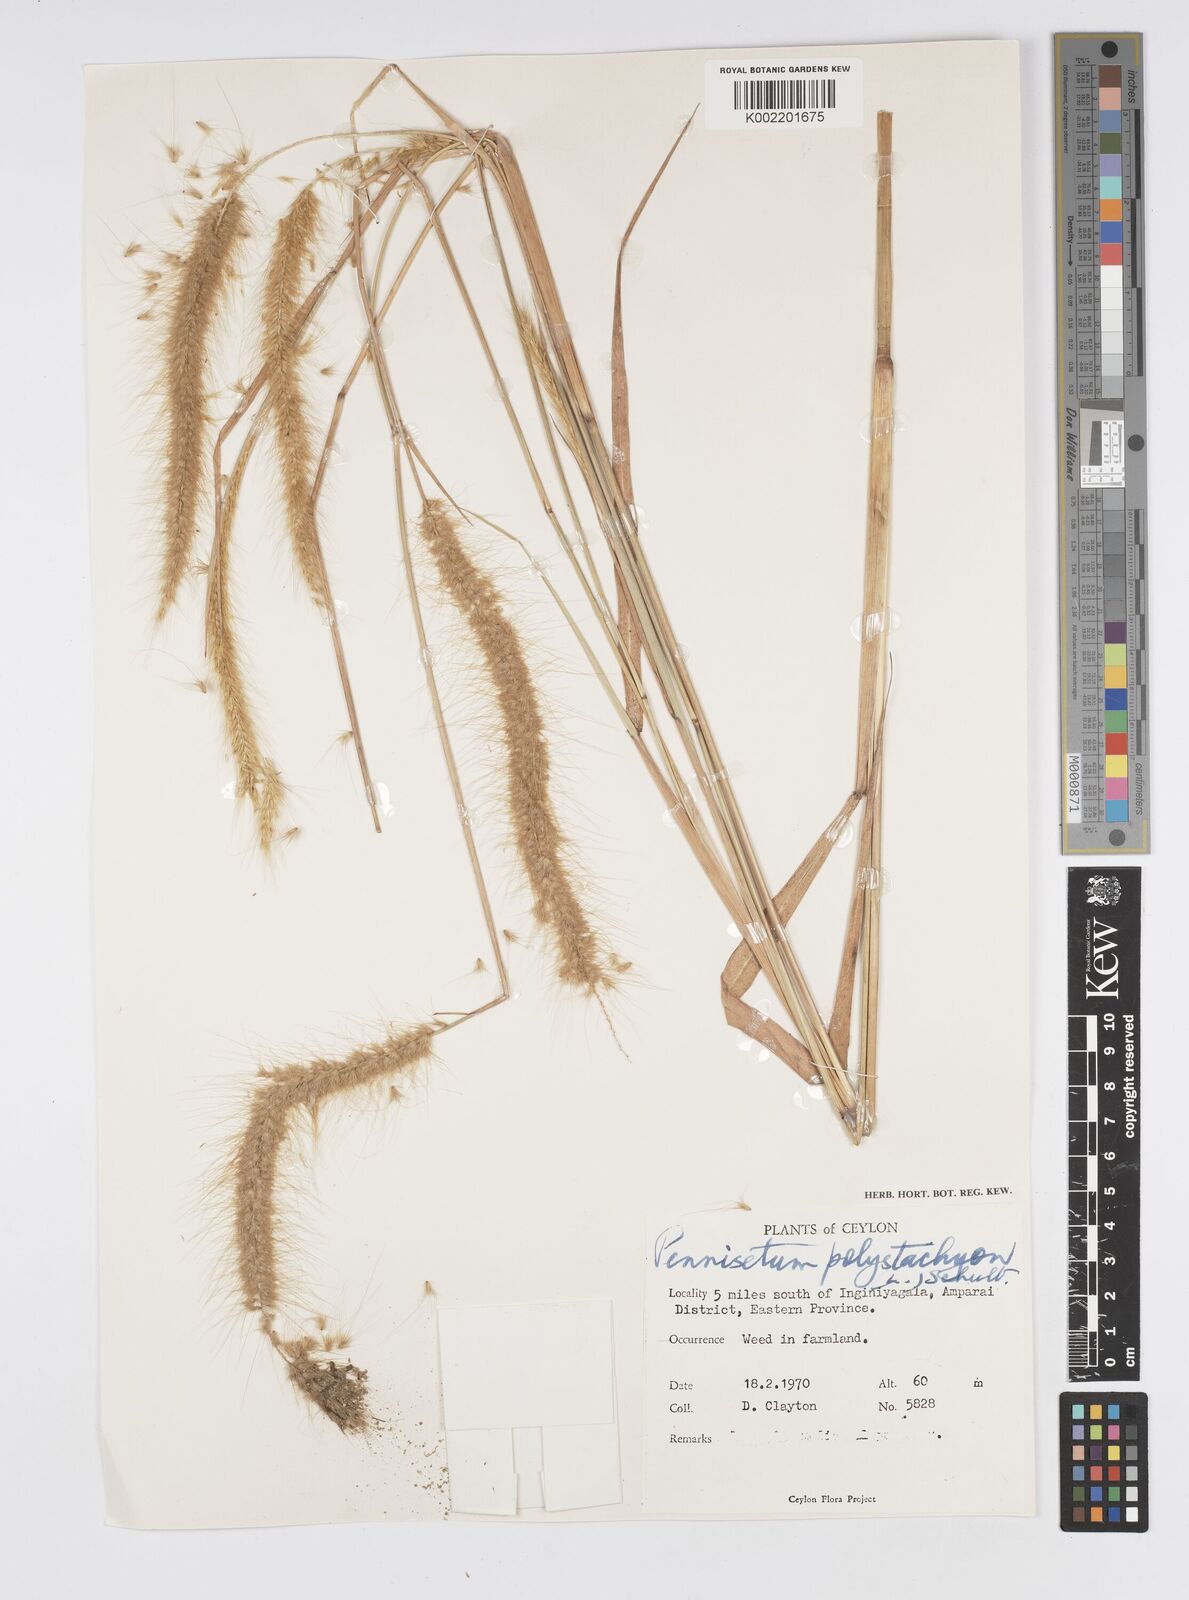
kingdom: Plantae
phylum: Tracheophyta
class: Liliopsida
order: Poales
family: Poaceae
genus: Setaria
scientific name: Setaria parviflora
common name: Knotroot bristle-grass
